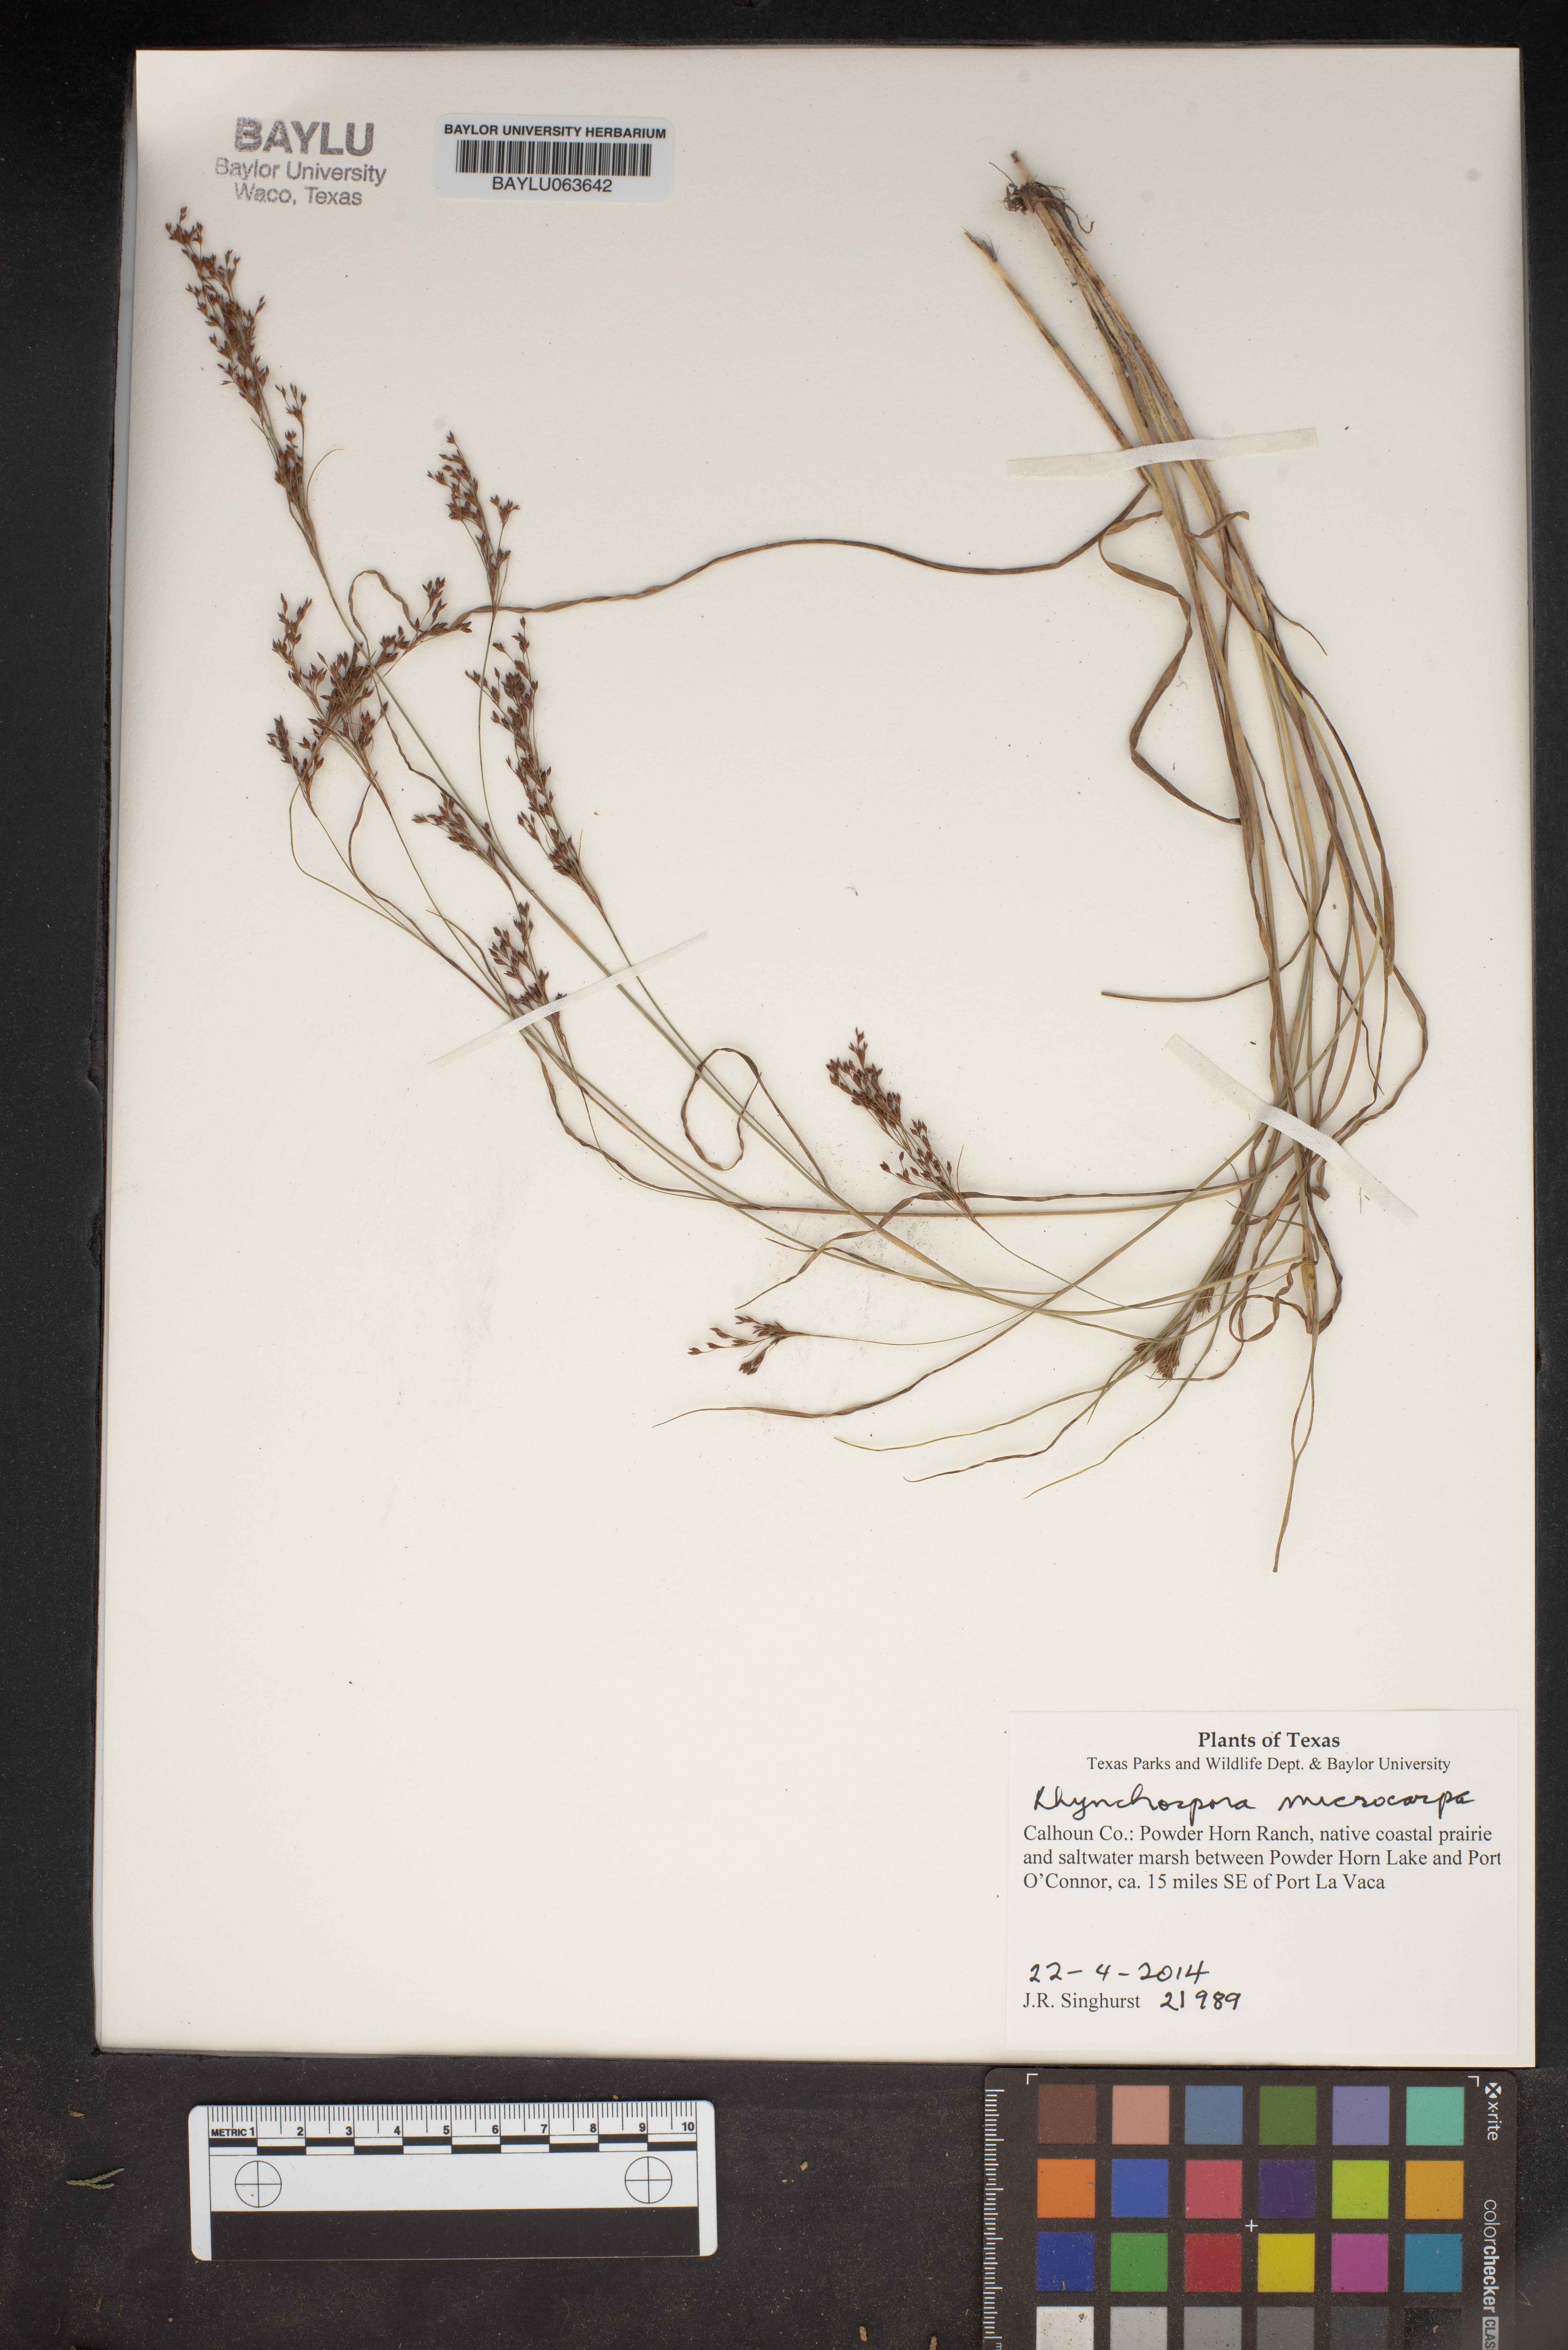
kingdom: Plantae
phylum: Tracheophyta
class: Liliopsida
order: Poales
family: Cyperaceae
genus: Rhynchospora
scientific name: Rhynchospora microcarpa
